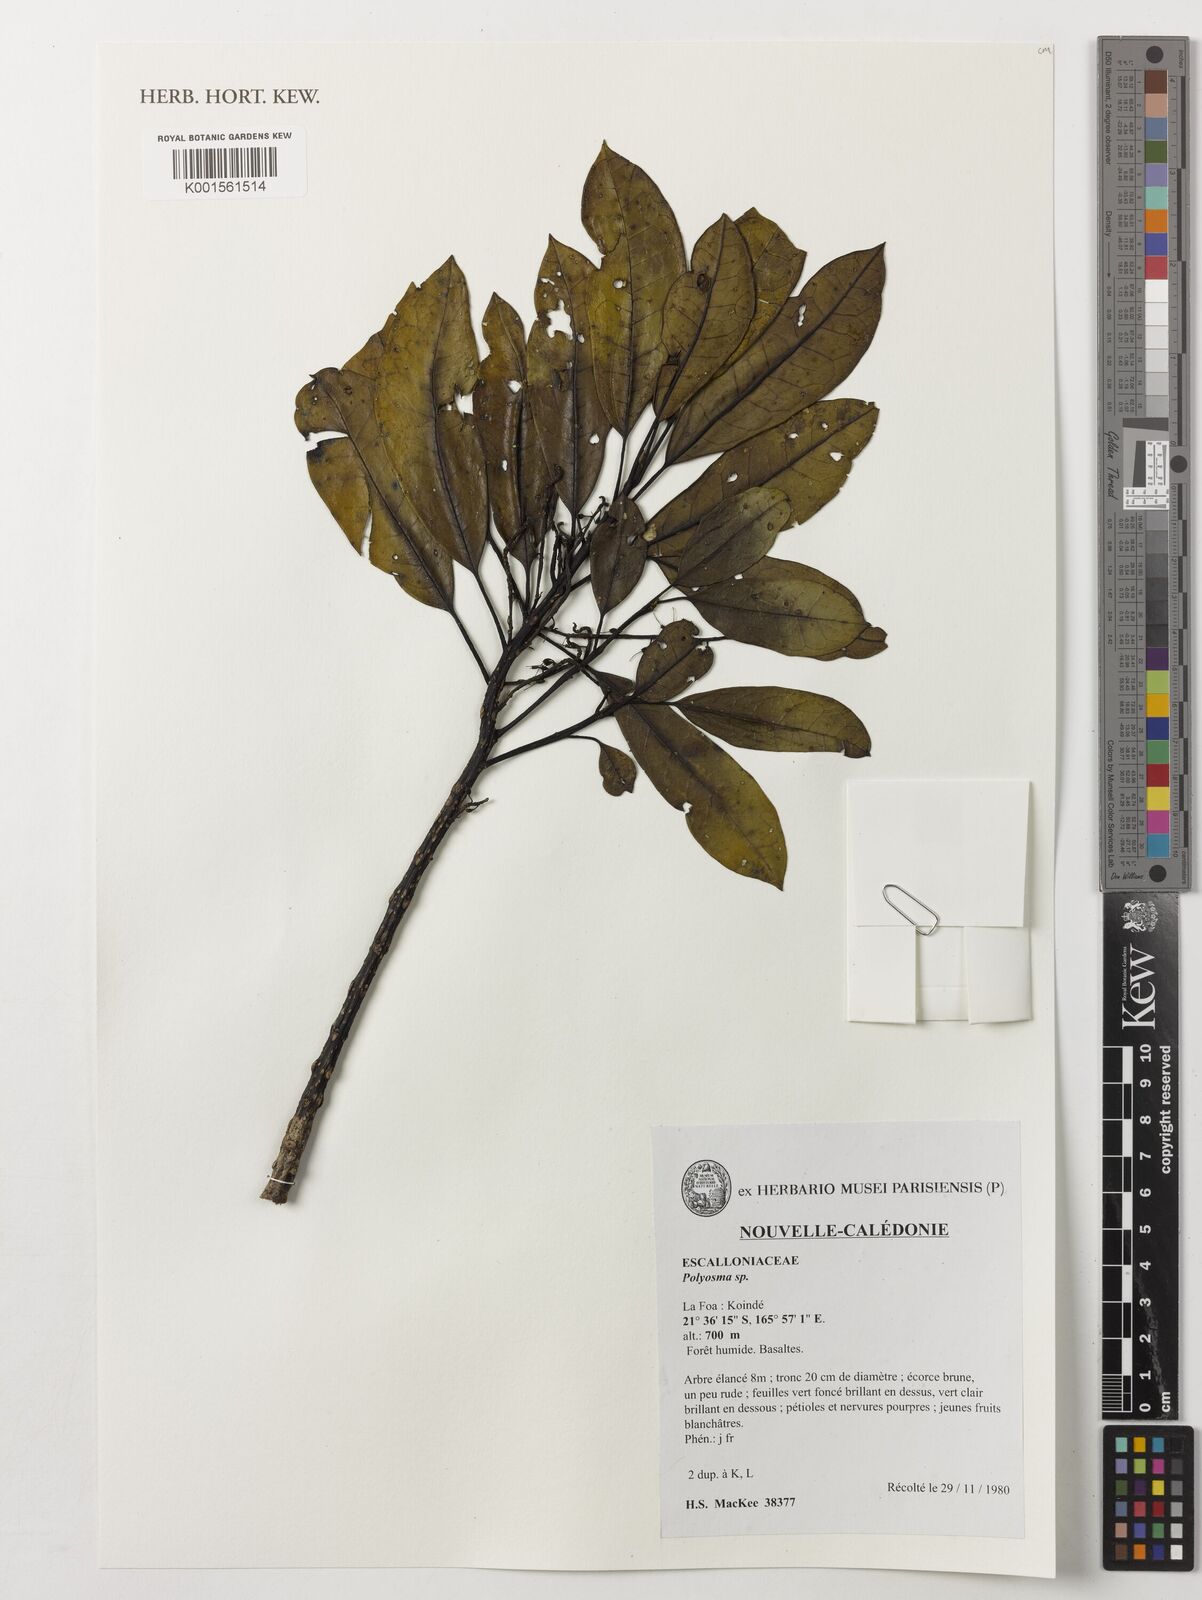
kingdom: Plantae
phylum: Tracheophyta
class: Magnoliopsida
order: Escalloniales
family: Escalloniaceae
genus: Polyosma
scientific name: Polyosma
